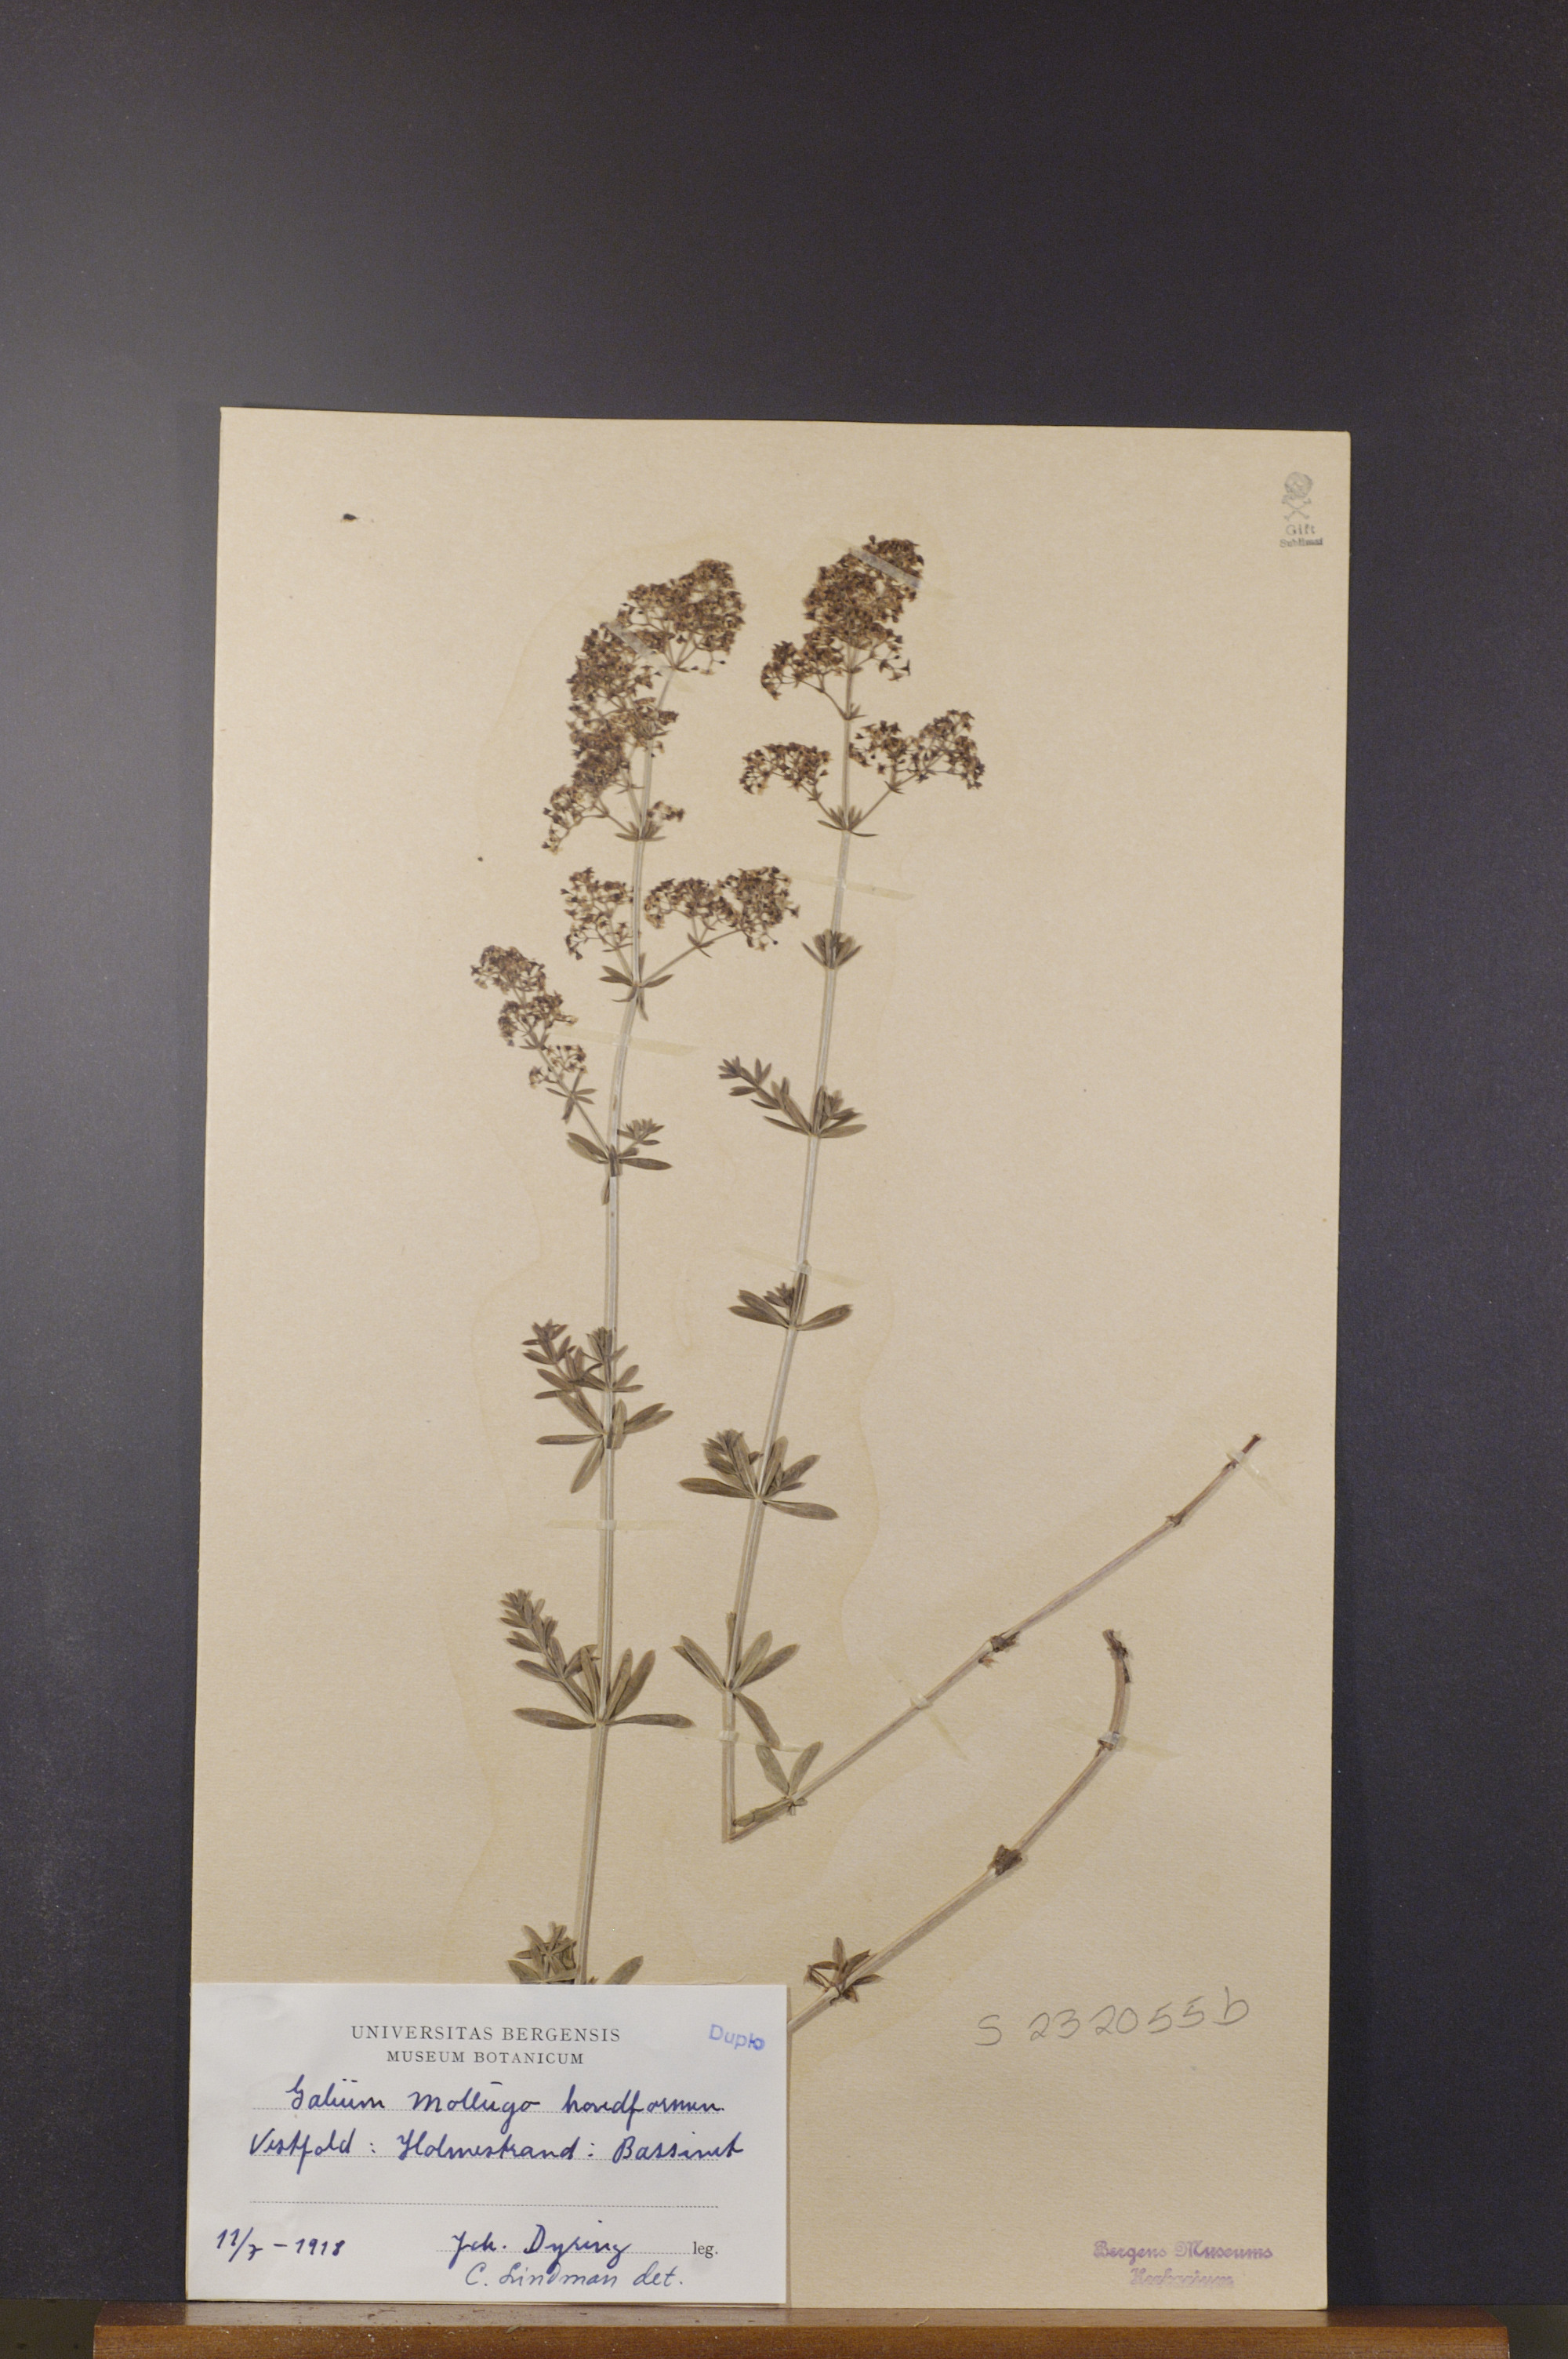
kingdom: Plantae
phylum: Tracheophyta
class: Magnoliopsida
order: Gentianales
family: Rubiaceae
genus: Galium
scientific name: Galium mollugo
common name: Hedge bedstraw
